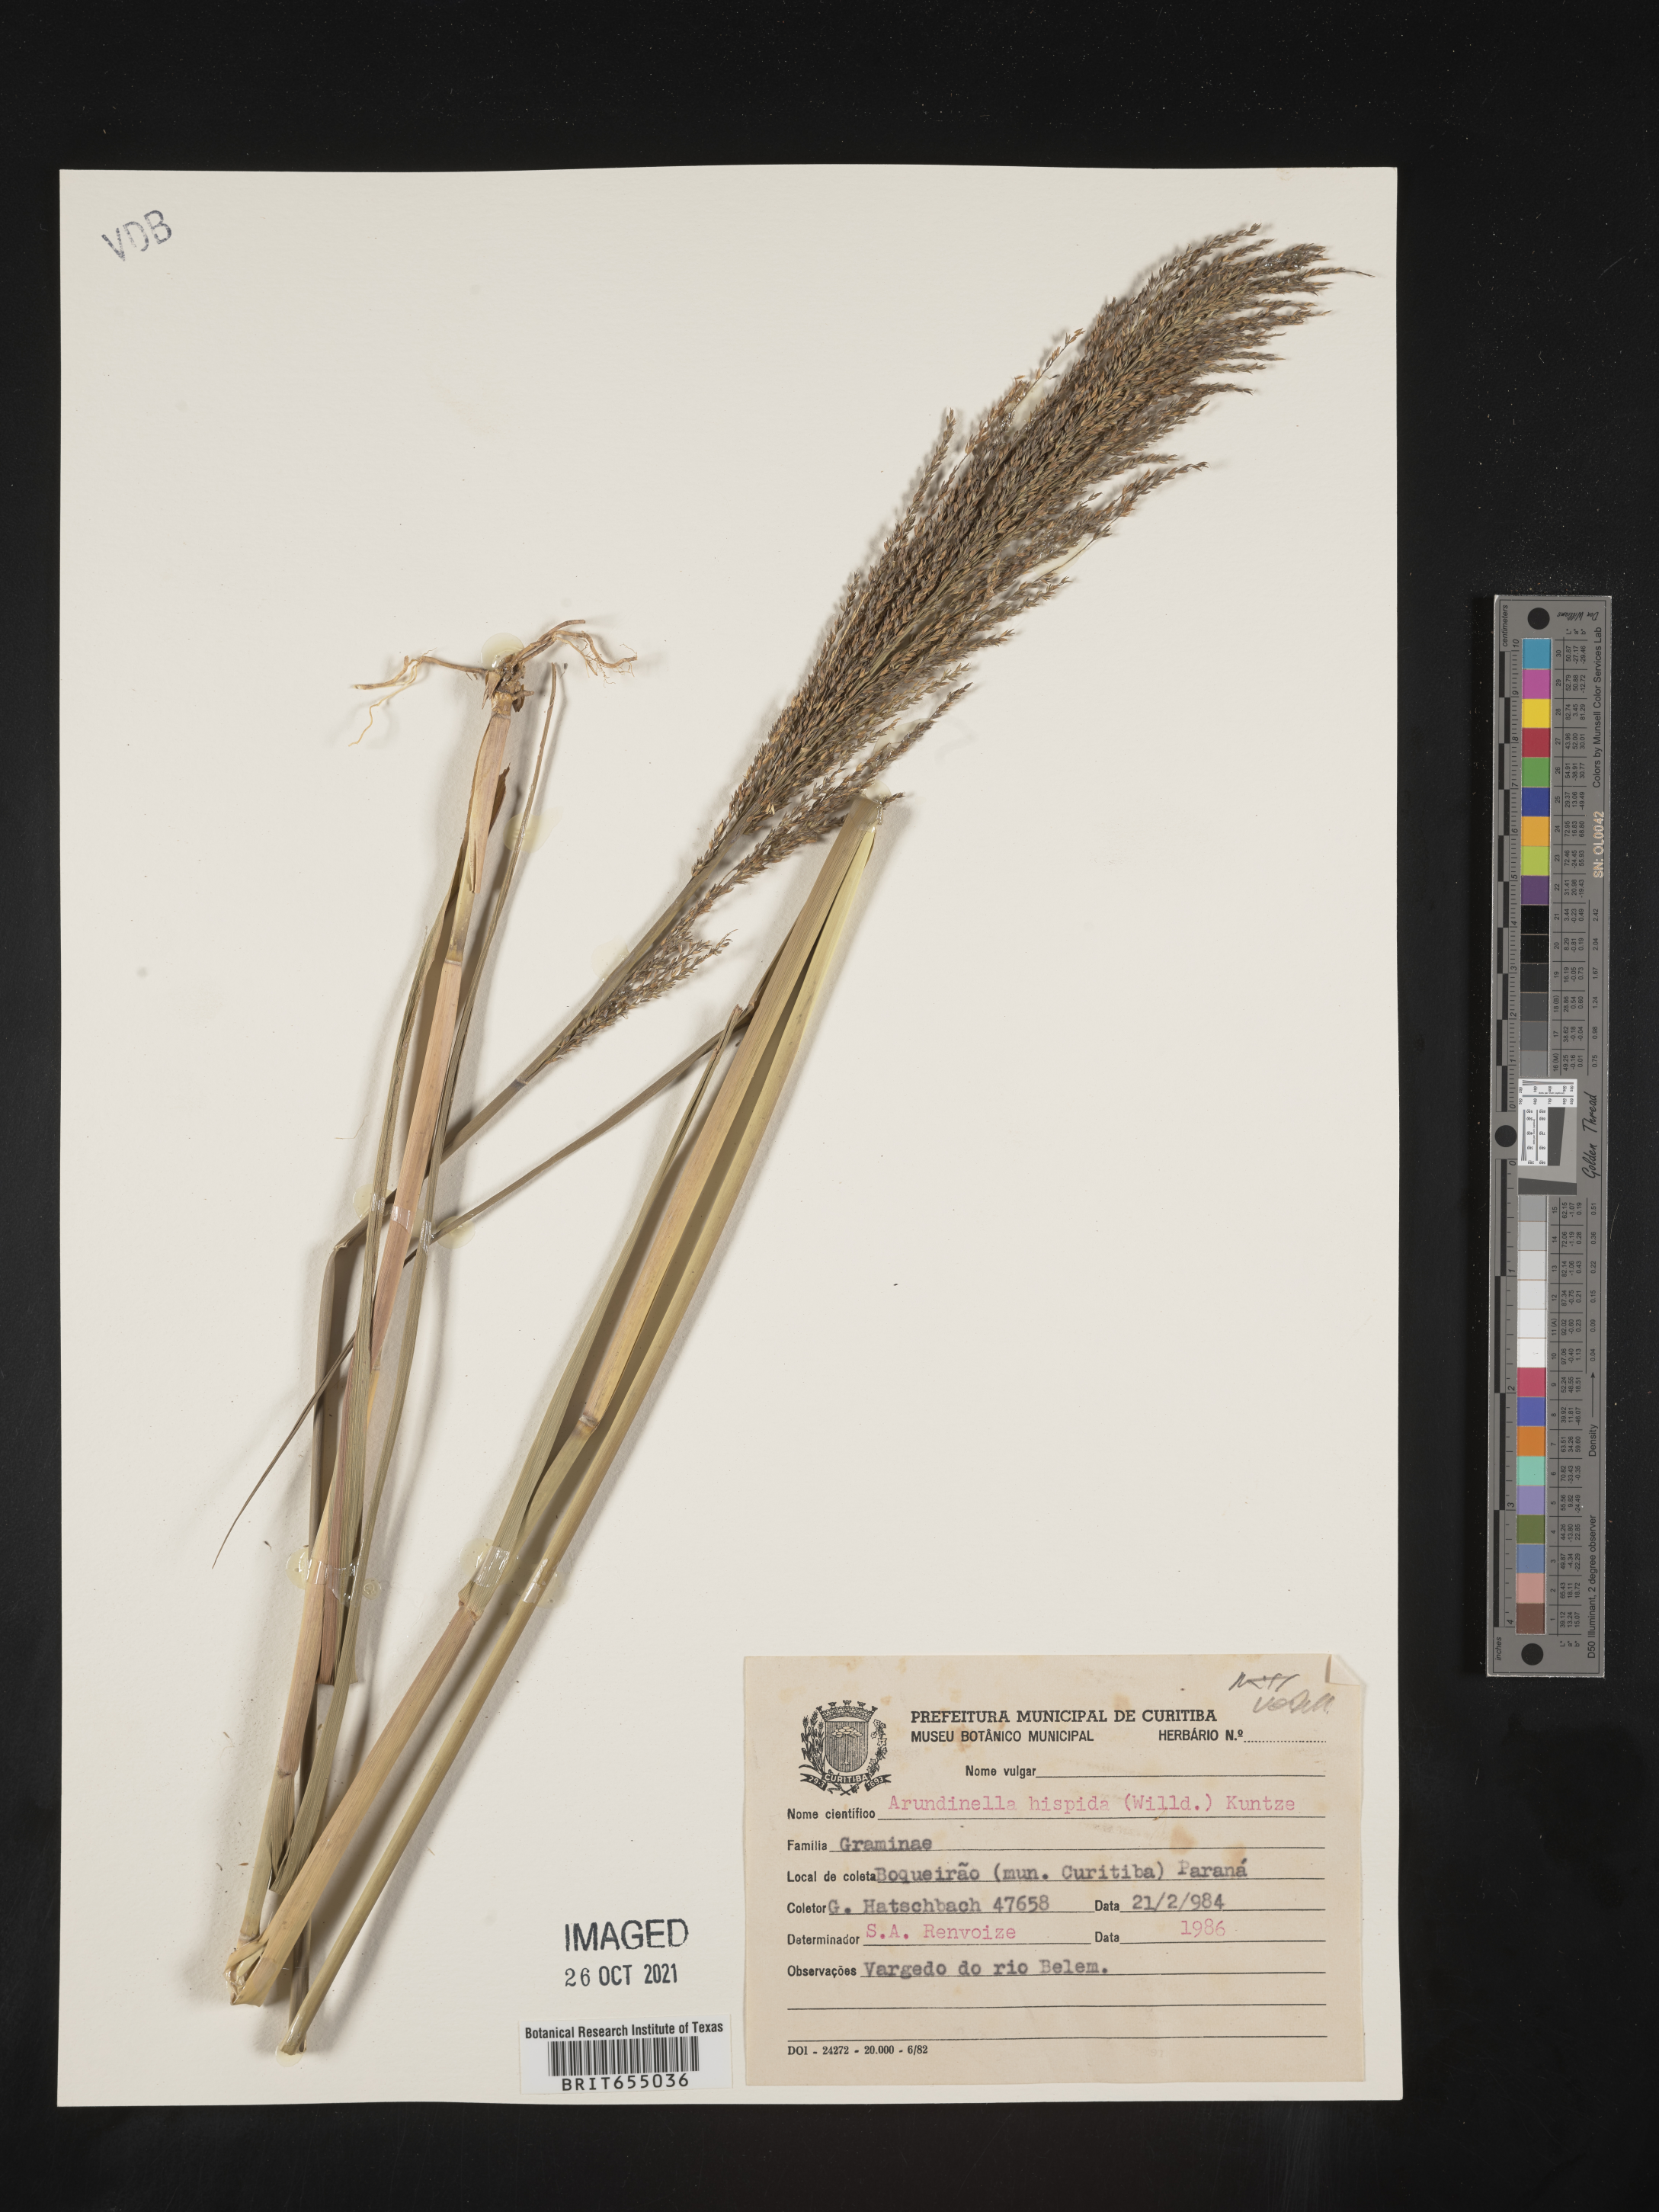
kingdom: Plantae
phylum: Tracheophyta
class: Liliopsida
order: Poales
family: Poaceae
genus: Arundinella
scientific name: Arundinella
